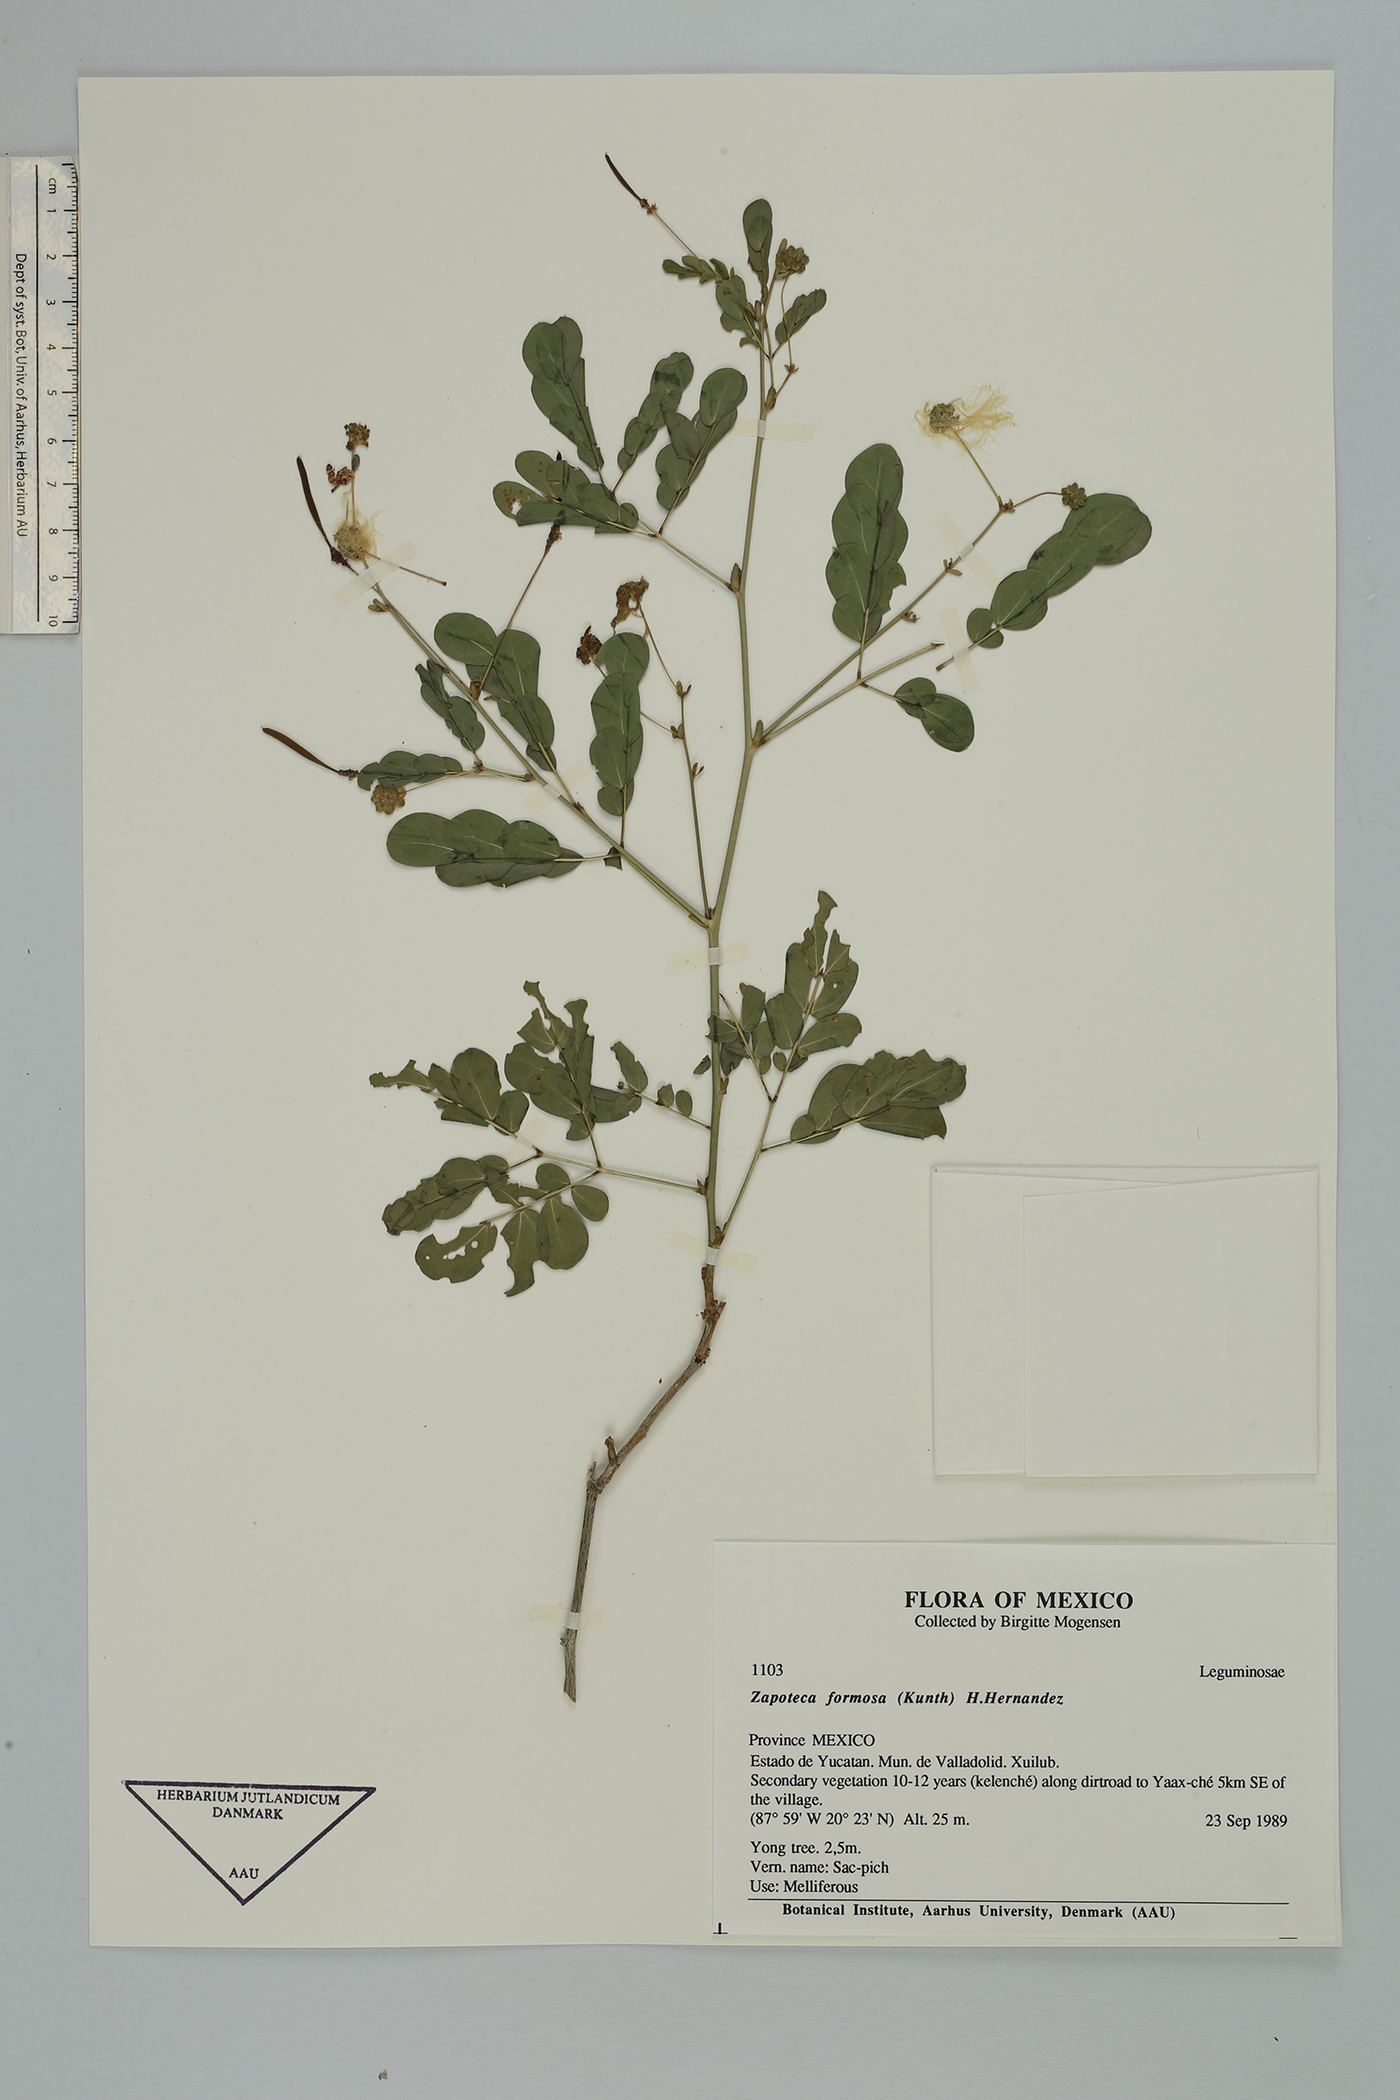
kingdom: Plantae
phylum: Tracheophyta
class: Magnoliopsida
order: Fabales
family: Fabaceae
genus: Zapoteca
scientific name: Zapoteca formosa
